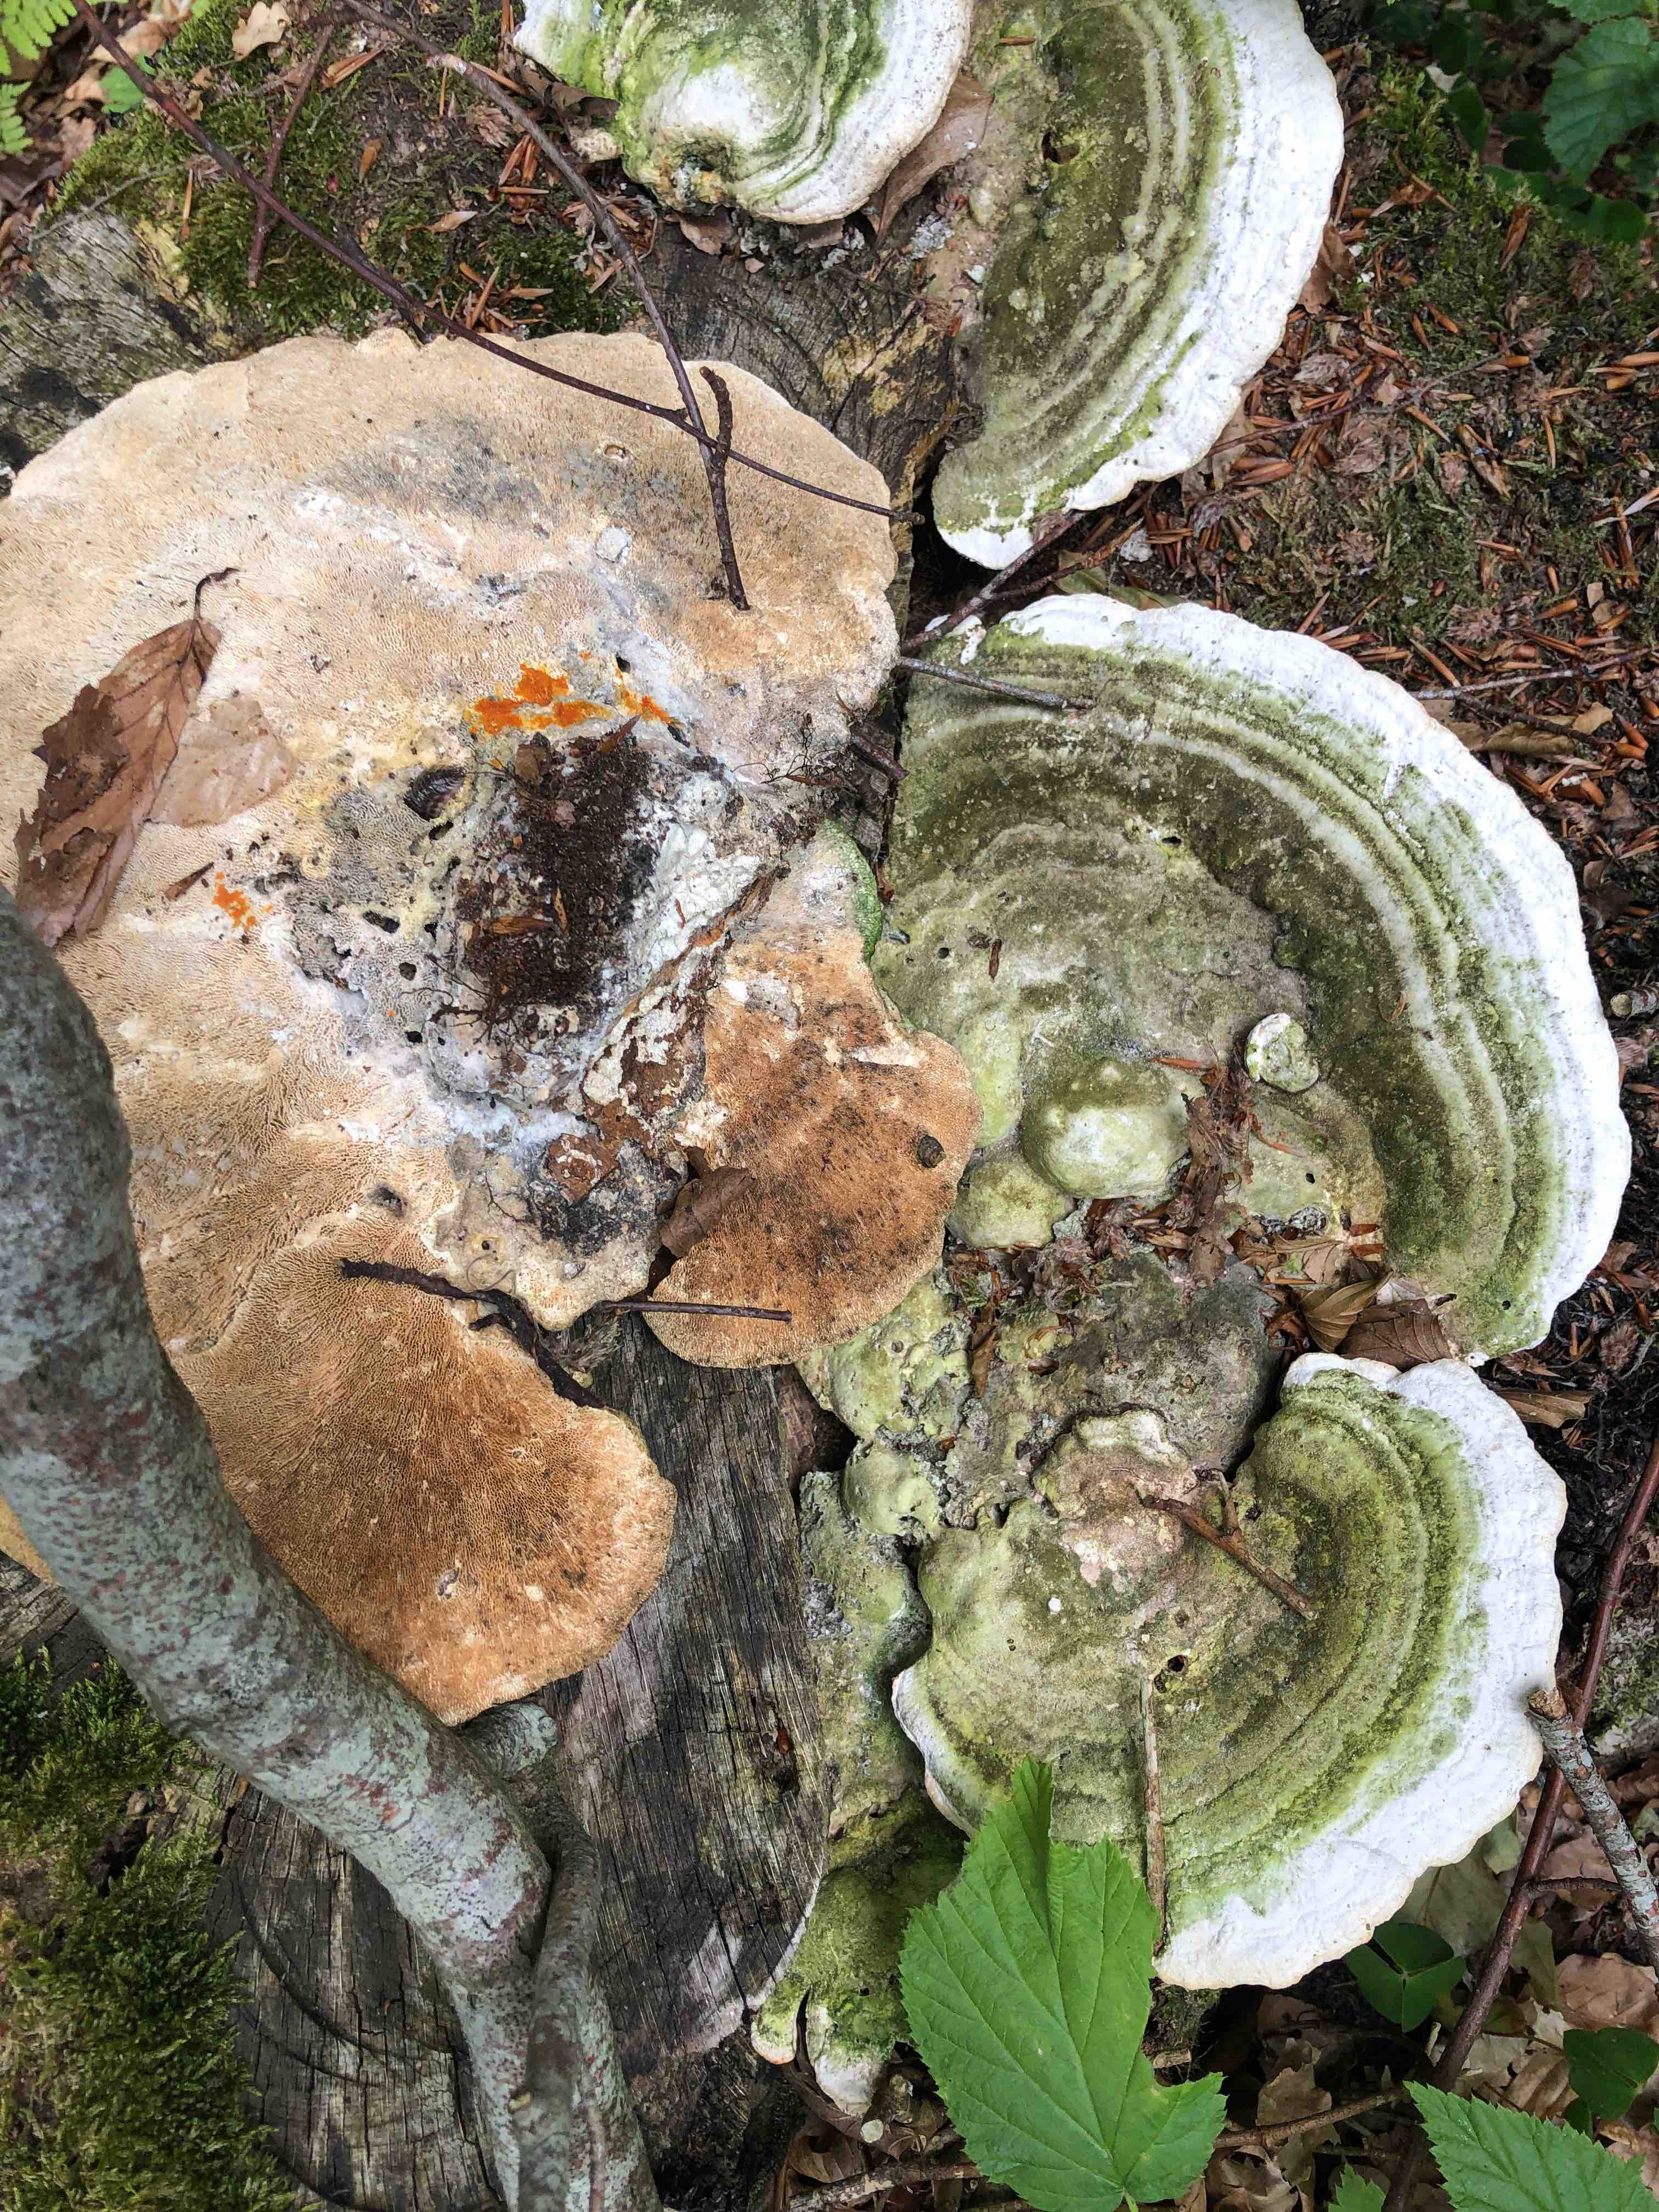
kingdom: Fungi
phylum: Basidiomycota
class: Agaricomycetes
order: Polyporales
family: Polyporaceae
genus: Trametes
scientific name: Trametes
